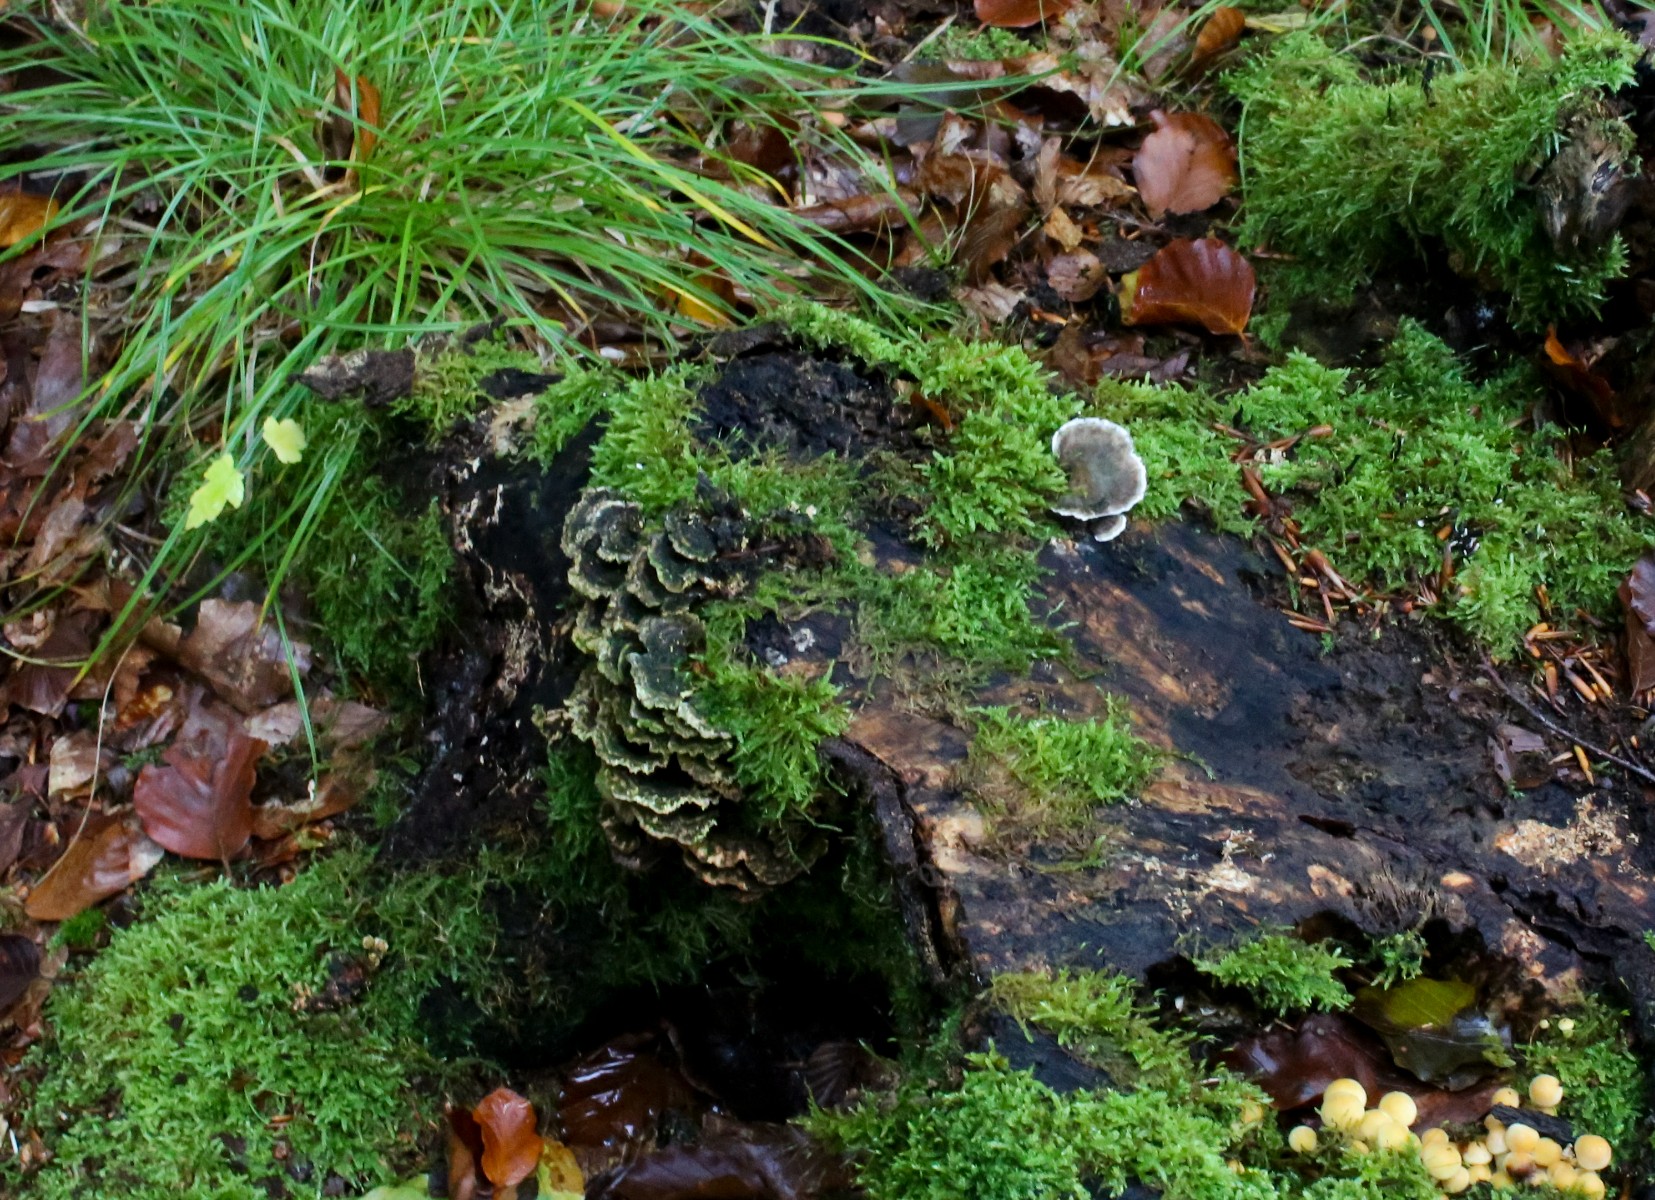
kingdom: Fungi
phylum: Basidiomycota
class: Agaricomycetes
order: Polyporales
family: Polyporaceae
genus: Trametes
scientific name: Trametes versicolor
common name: broget læderporesvamp
